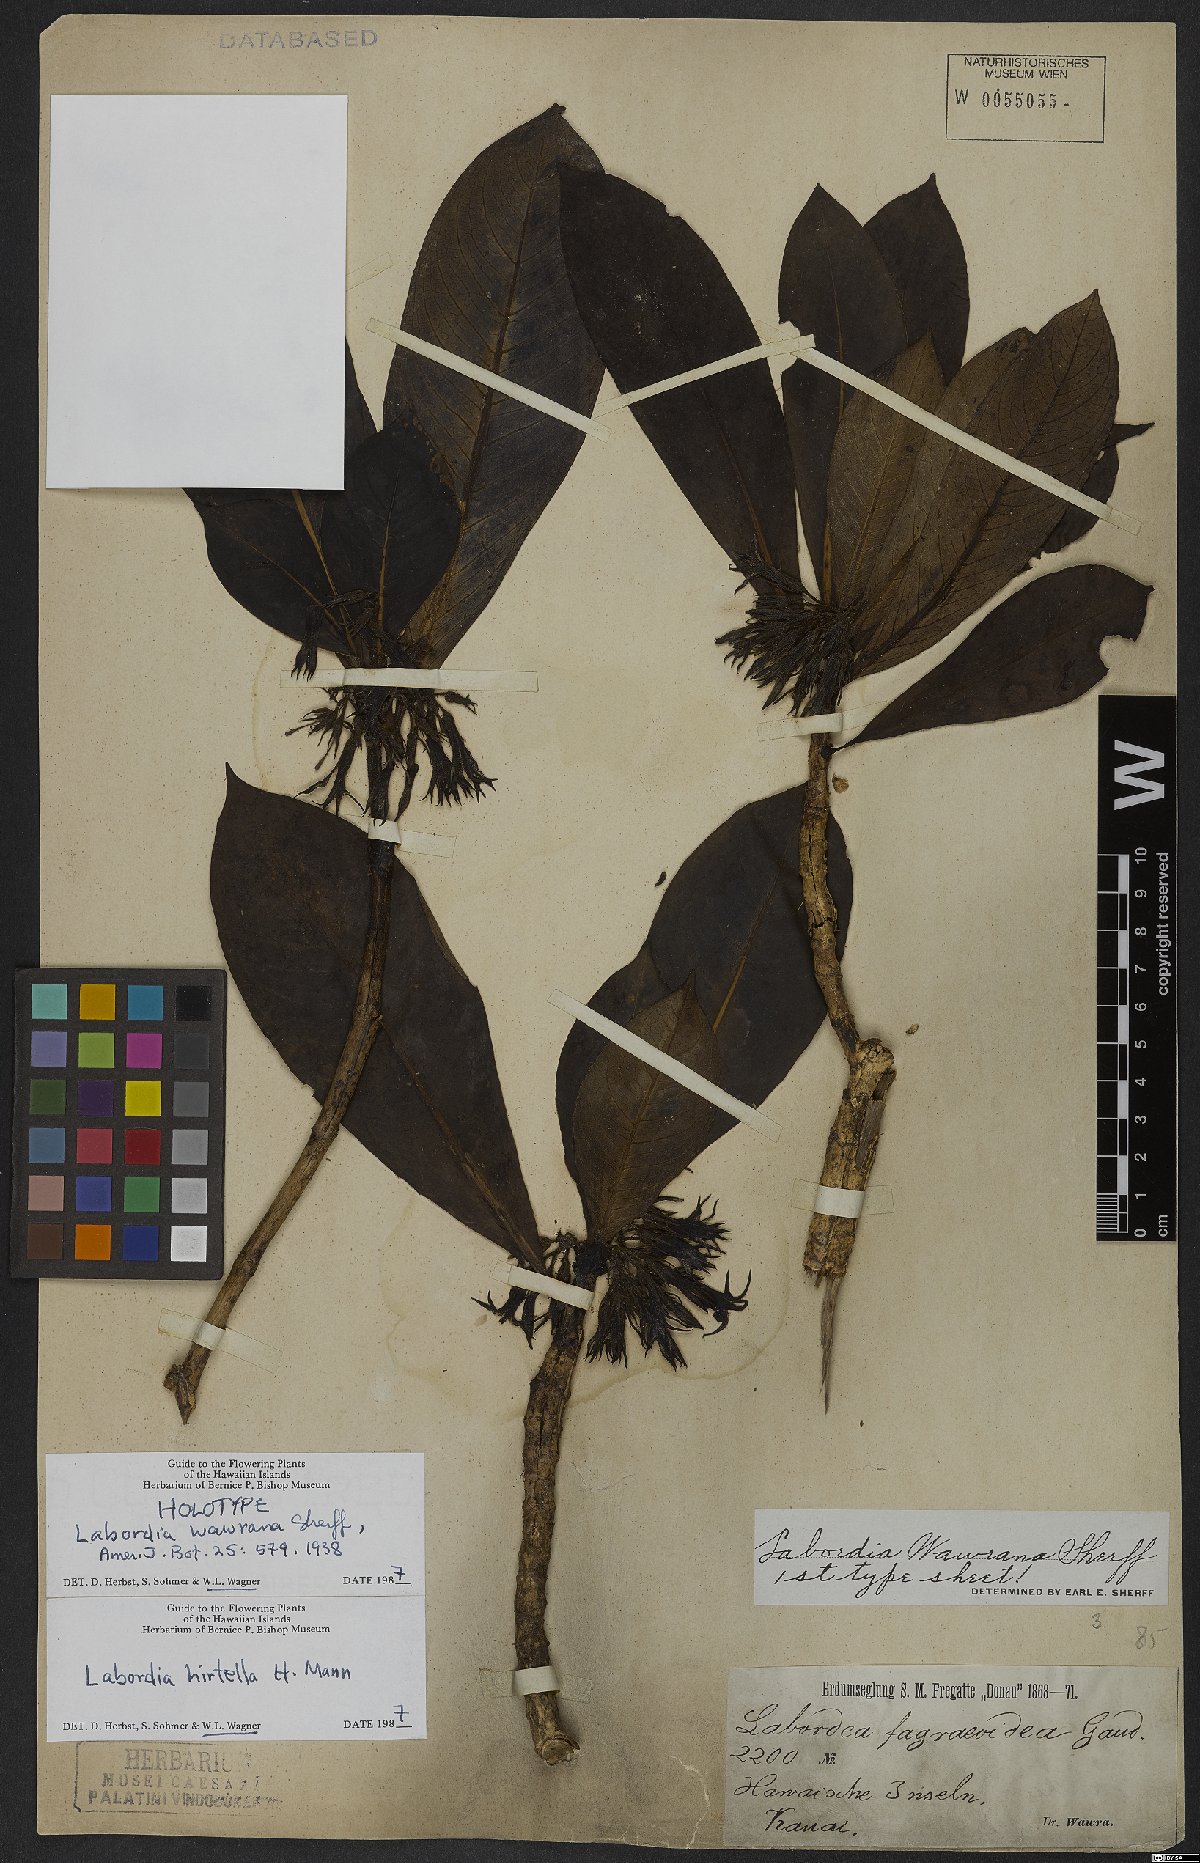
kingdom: Plantae
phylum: Tracheophyta
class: Magnoliopsida
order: Gentianales
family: Loganiaceae
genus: Geniostoma
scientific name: Geniostoma hirtellum
